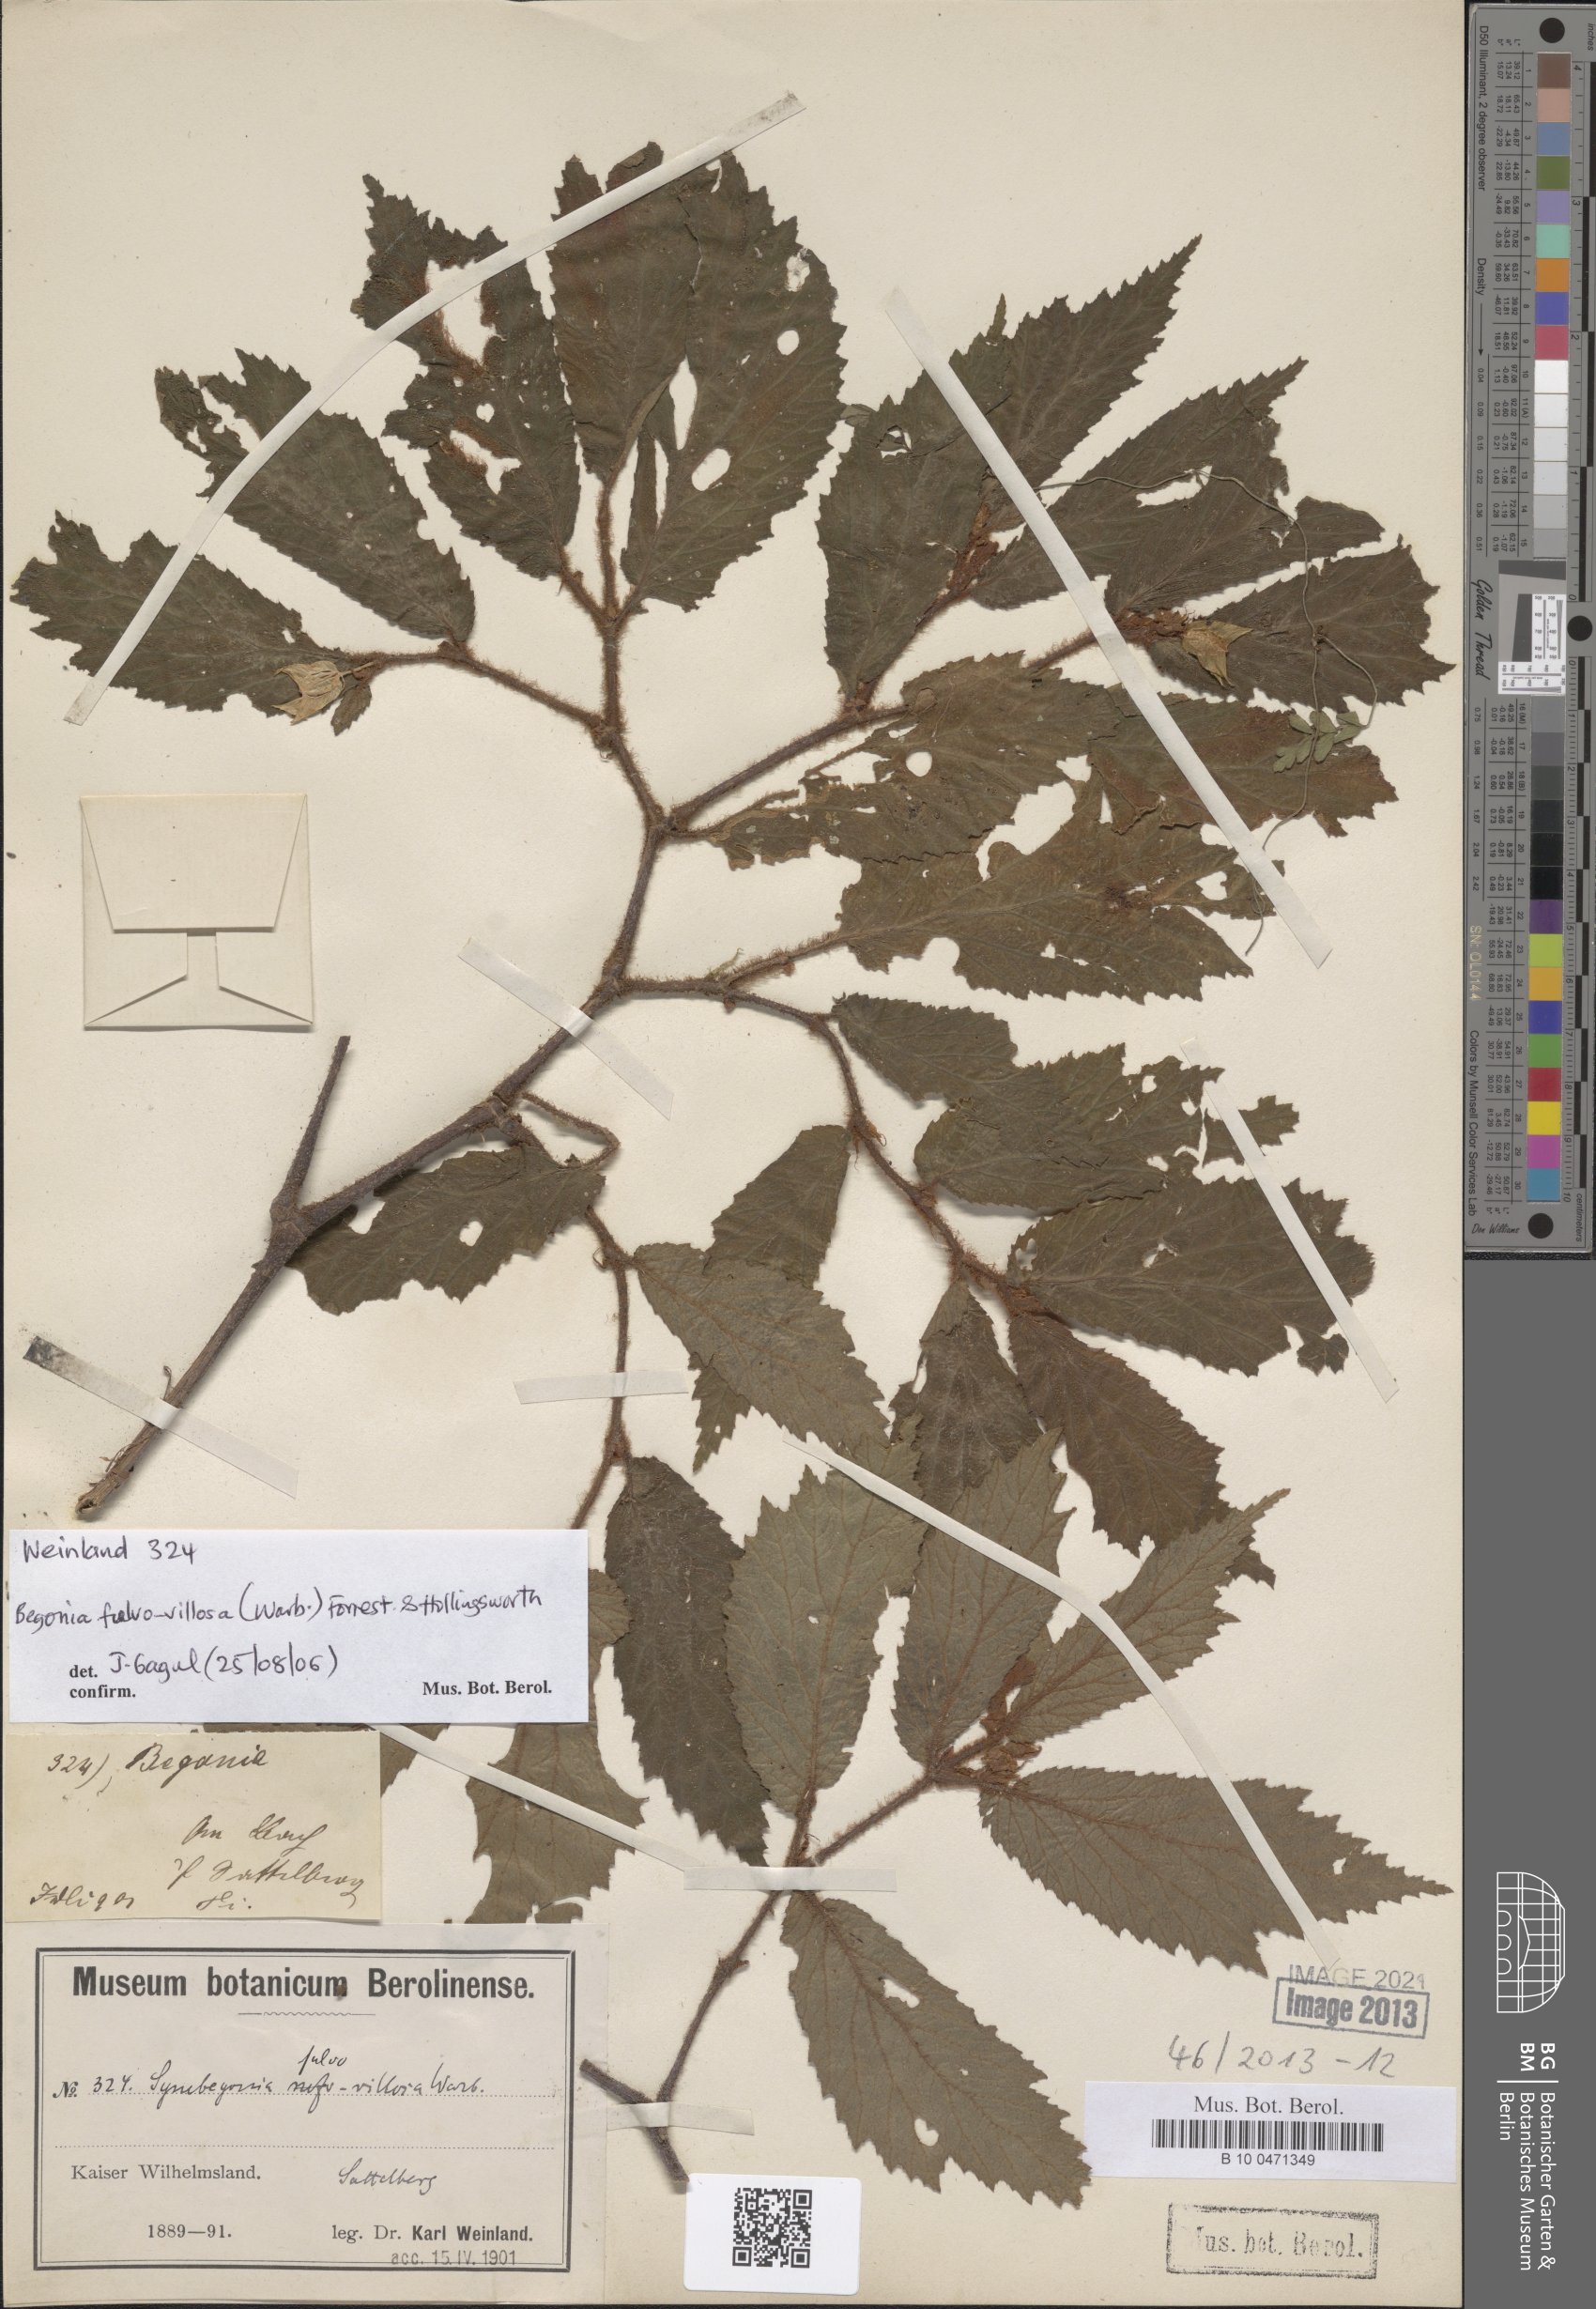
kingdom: Plantae
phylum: Tracheophyta
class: Magnoliopsida
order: Cucurbitales
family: Begoniaceae
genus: Begonia
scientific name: Begonia fulvovillosa
